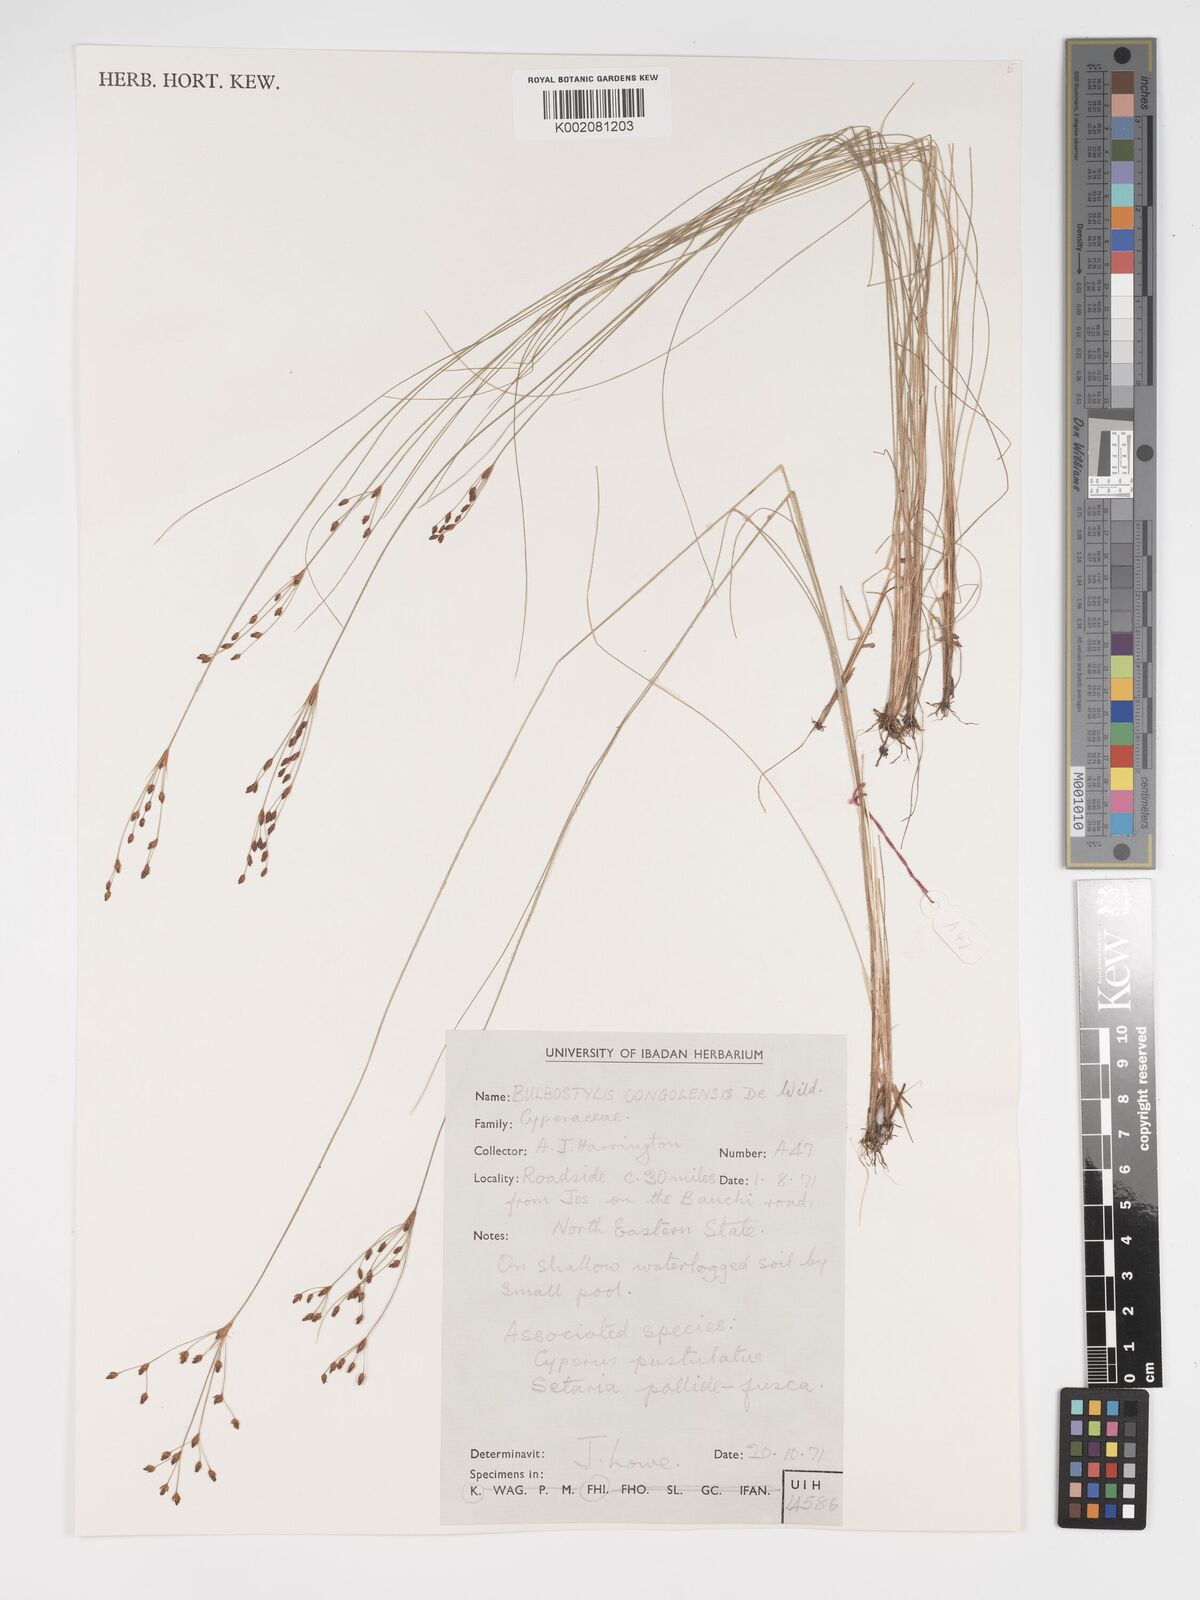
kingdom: Plantae
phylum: Tracheophyta
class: Liliopsida
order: Poales
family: Cyperaceae
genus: Bulbostylis
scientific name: Bulbostylis congolensis
